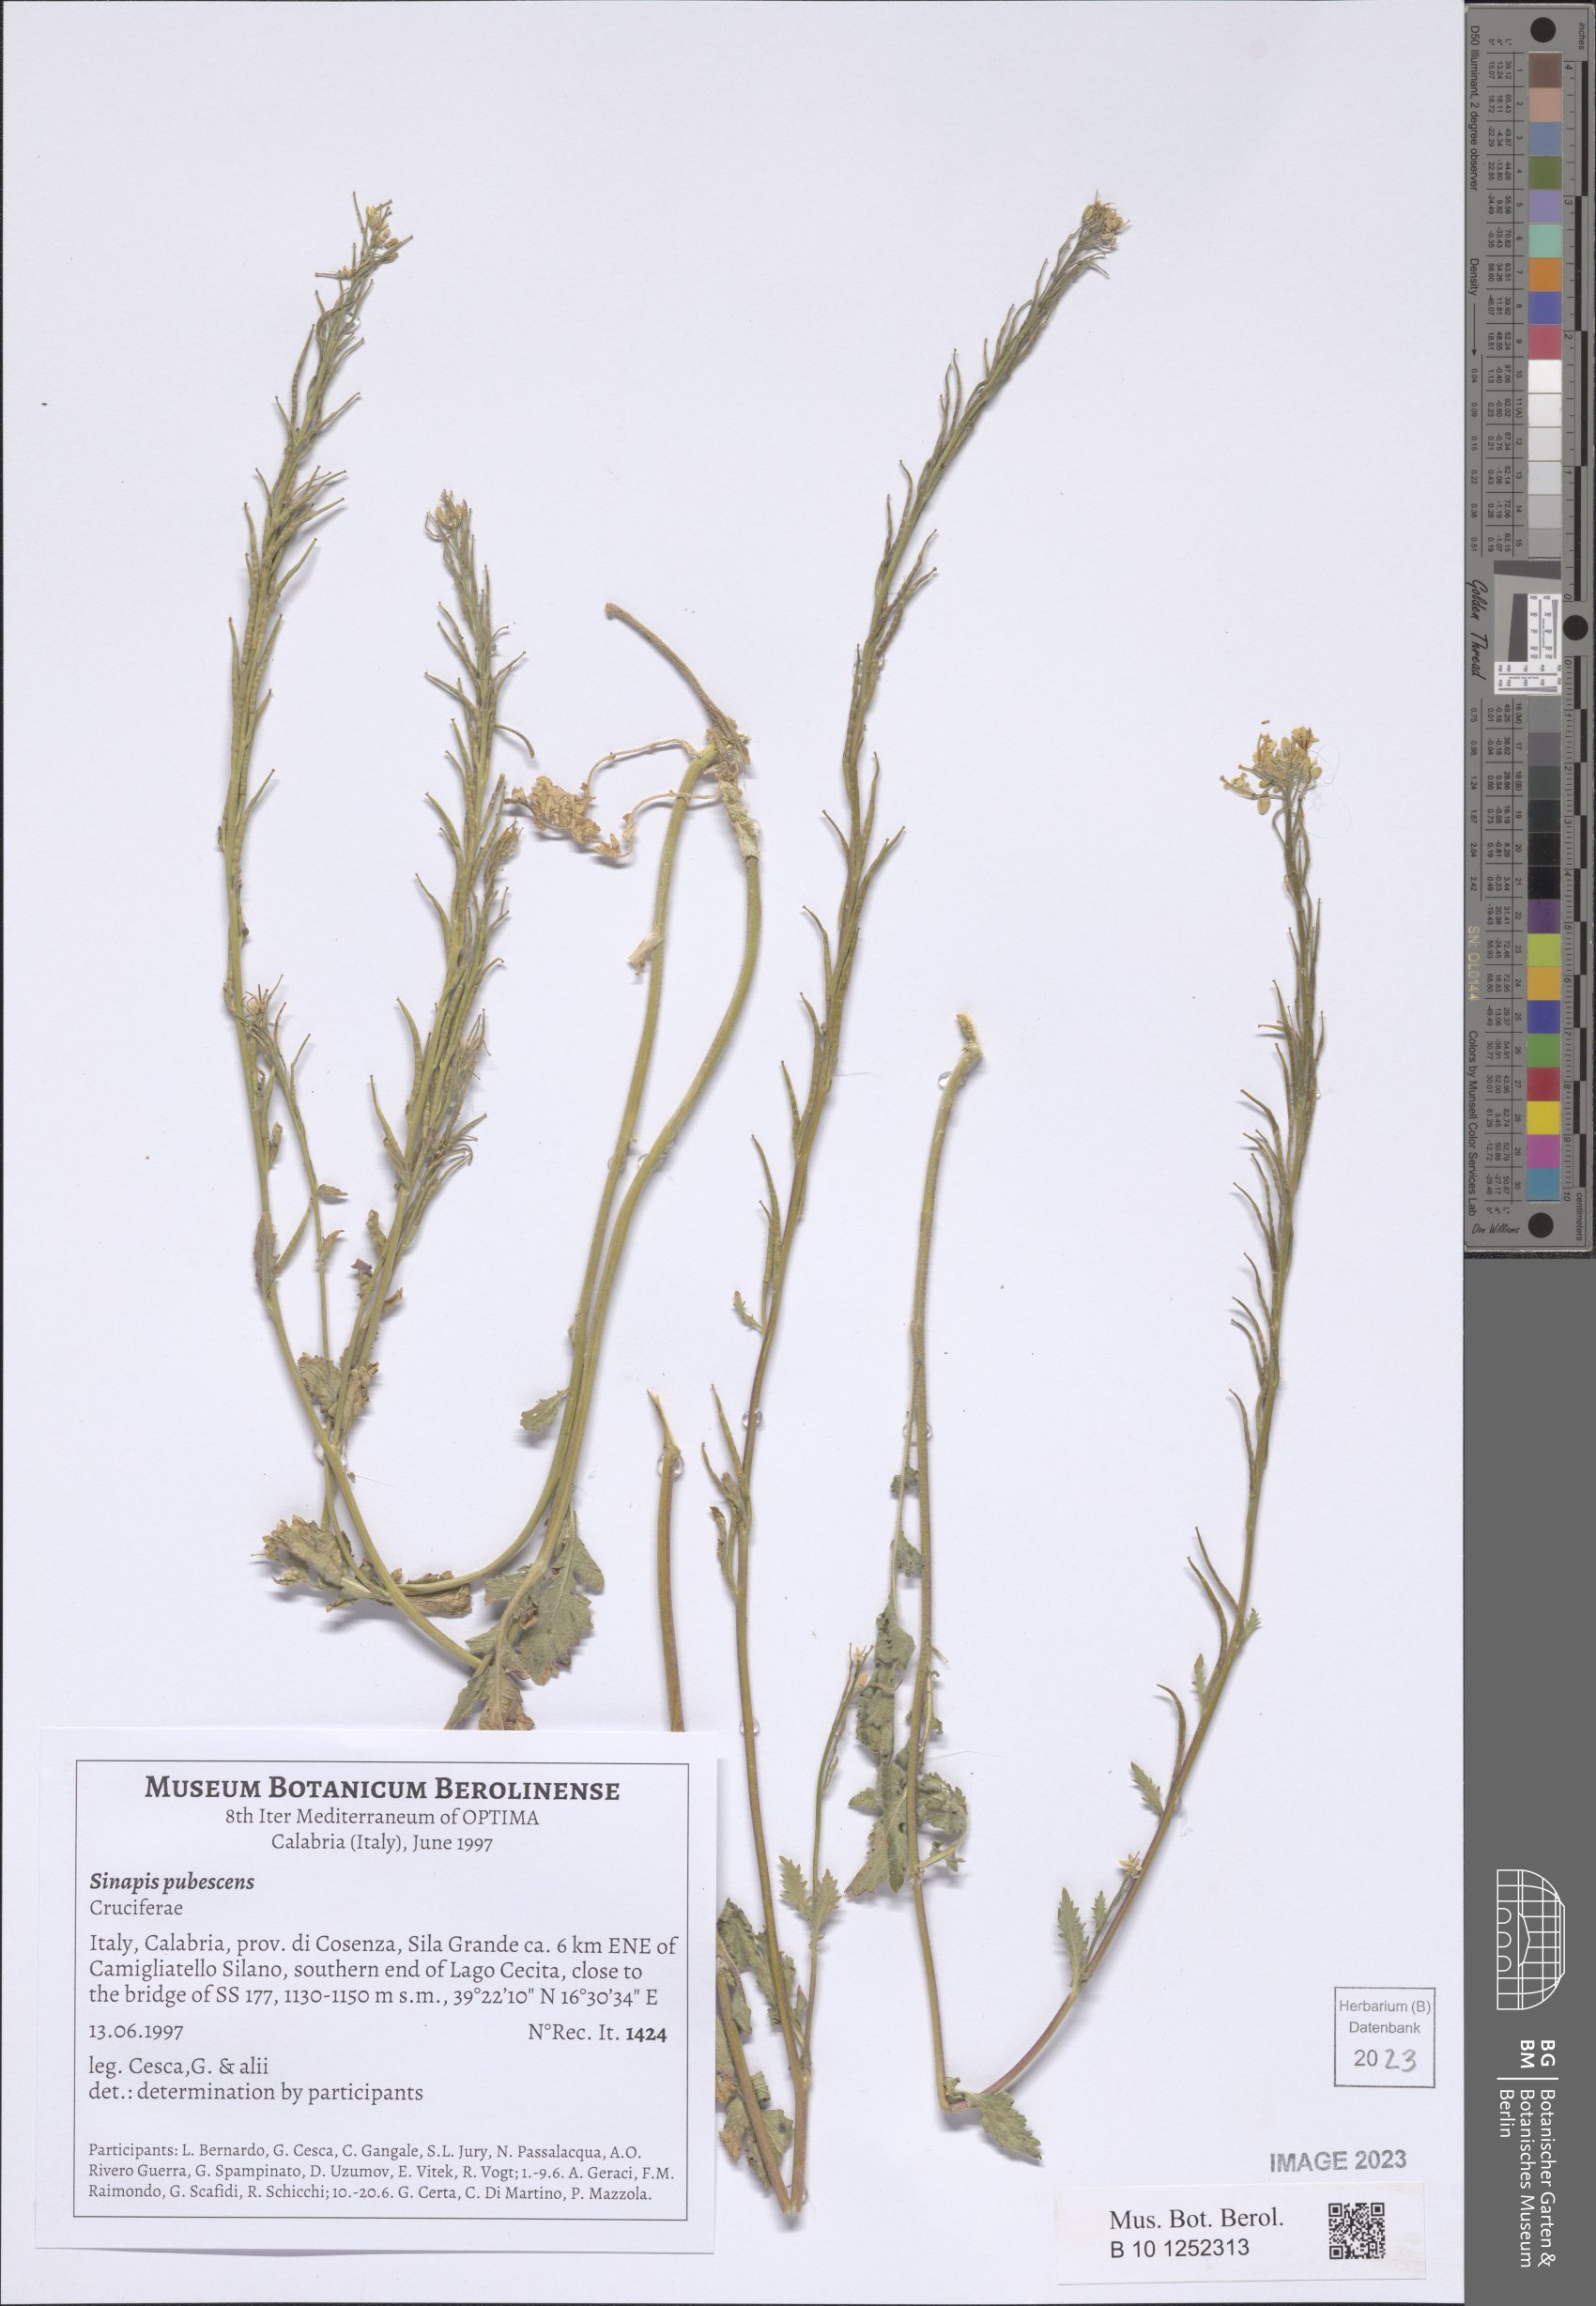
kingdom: Plantae
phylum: Tracheophyta
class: Magnoliopsida
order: Brassicales
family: Brassicaceae
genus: Sinapis
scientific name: Sinapis pubescens
